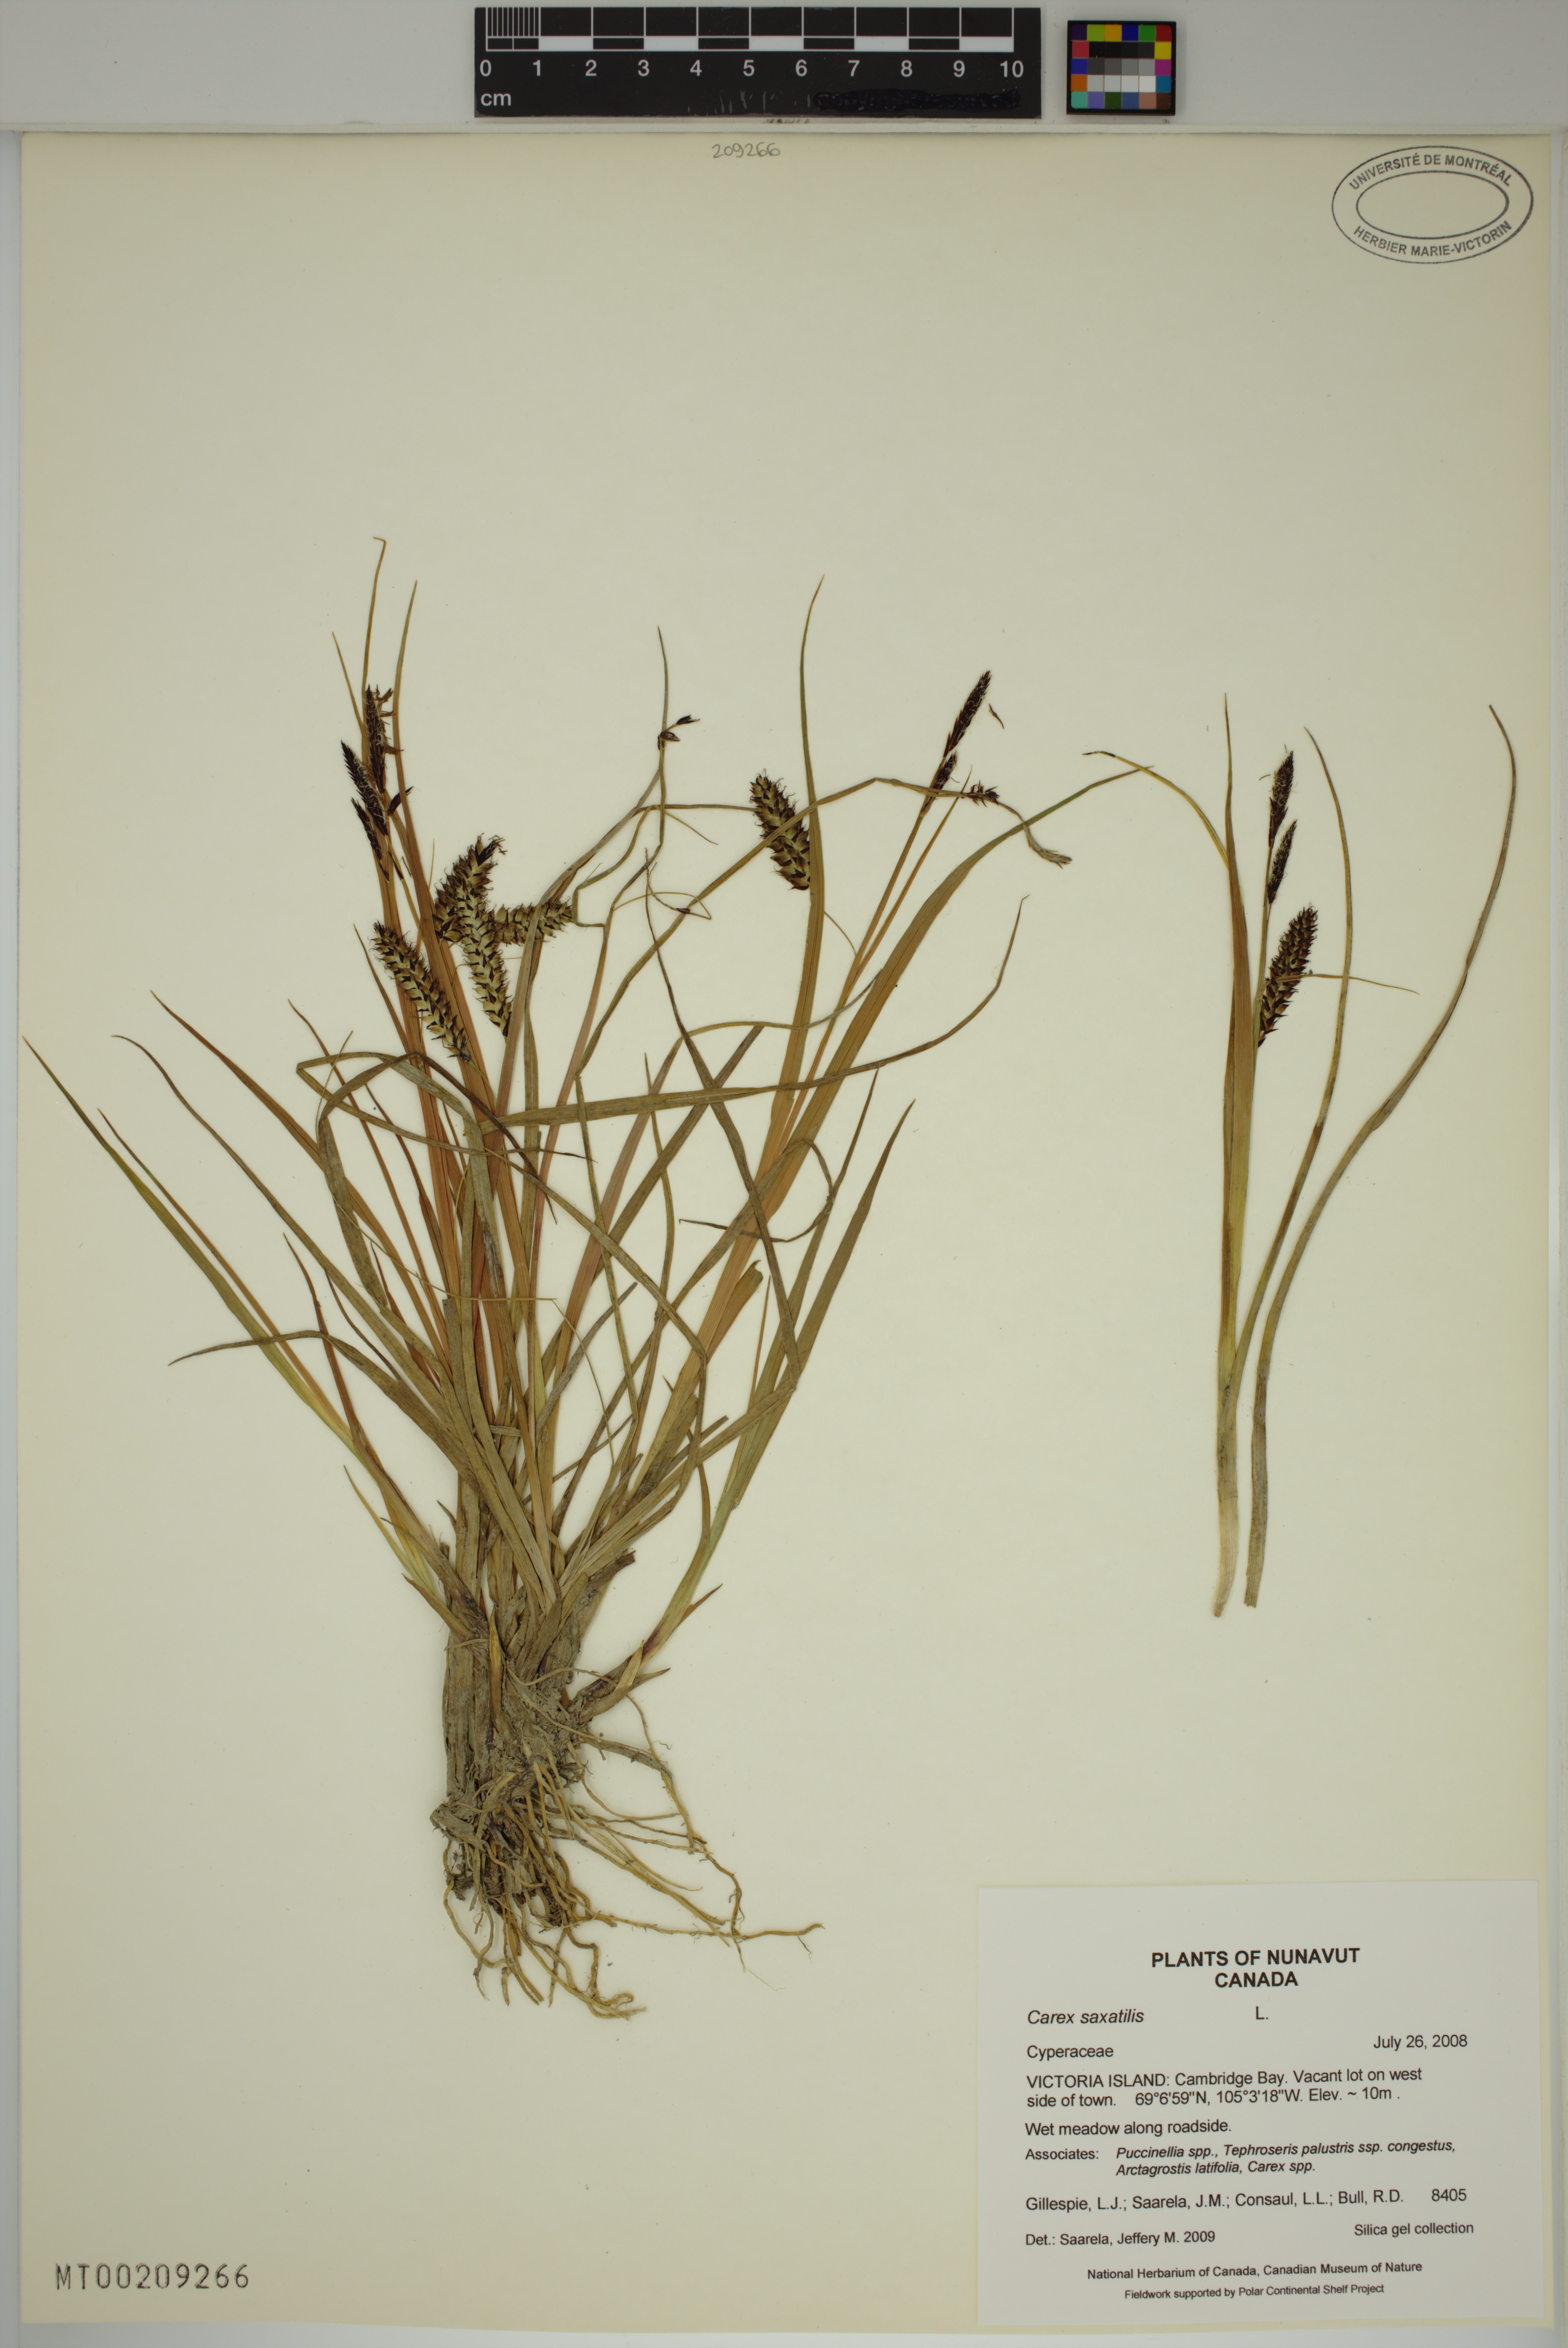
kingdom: Plantae
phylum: Tracheophyta
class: Liliopsida
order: Poales
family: Cyperaceae
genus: Carex
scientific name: Carex saxatilis
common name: Russet sedge
